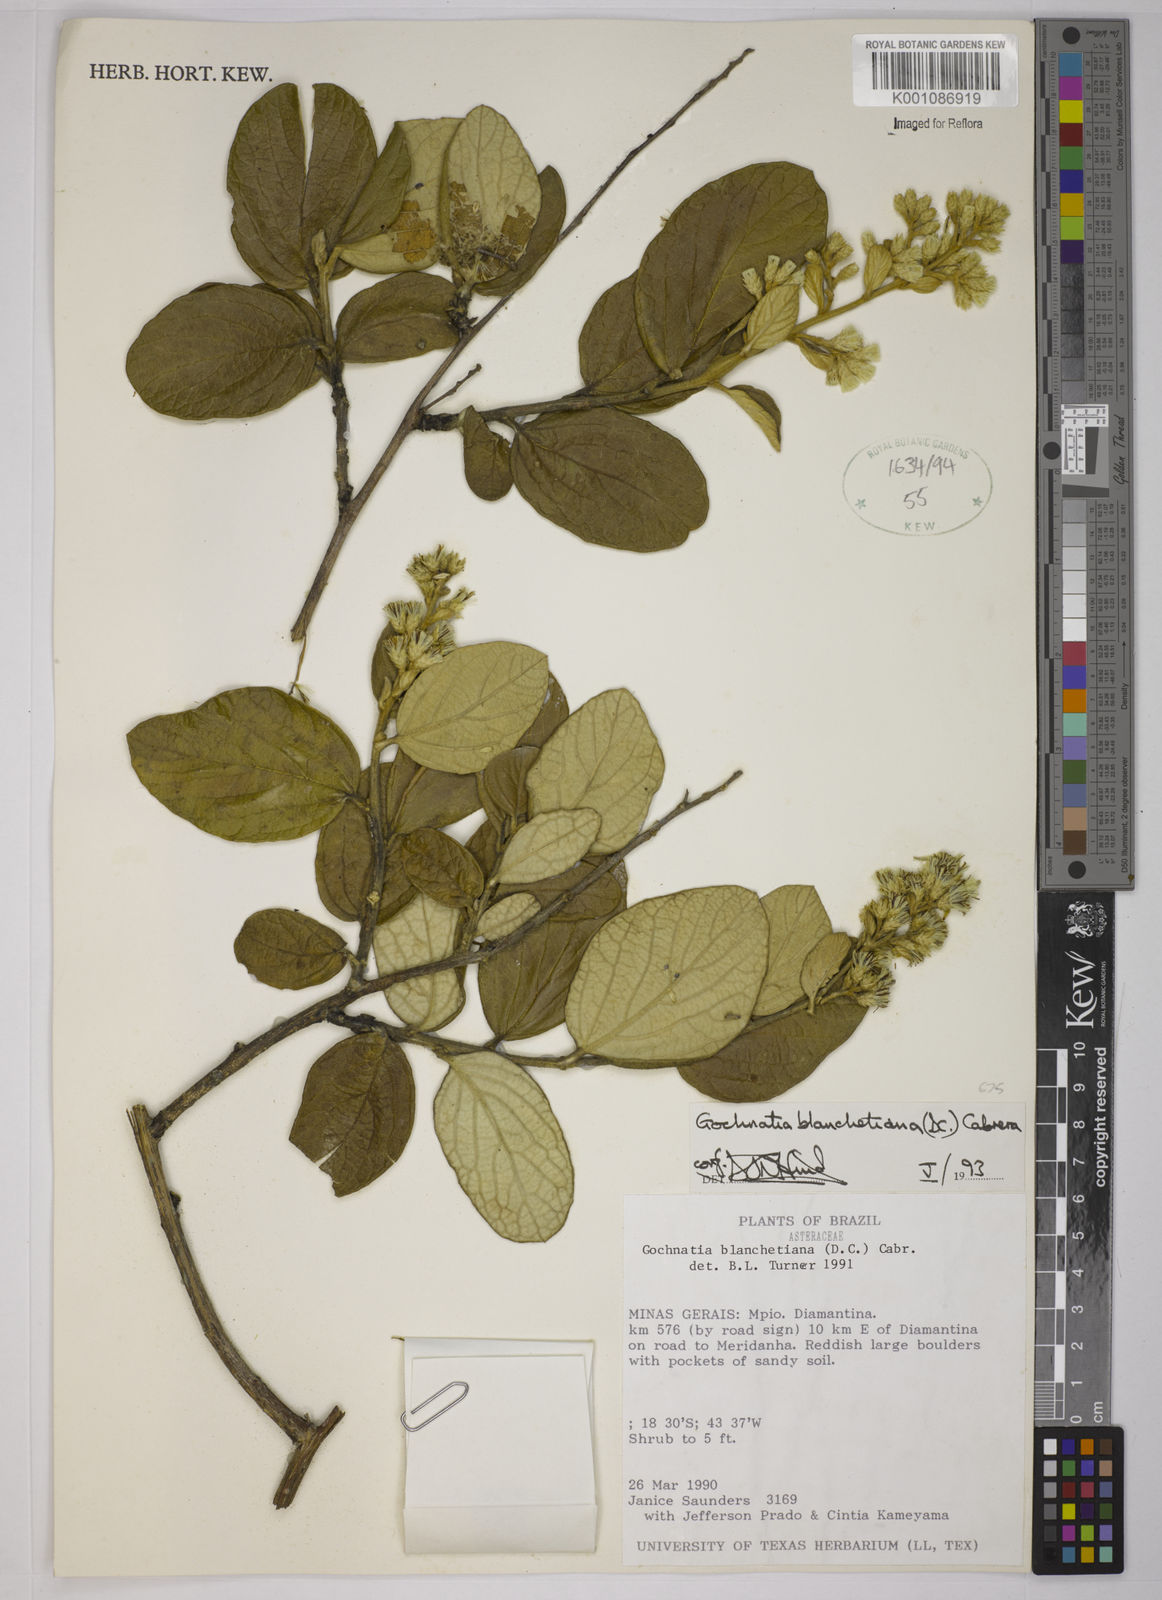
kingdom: Plantae
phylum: Tracheophyta
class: Magnoliopsida
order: Asterales
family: Asteraceae
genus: Moquiniastrum
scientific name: Moquiniastrum blanchetianum
